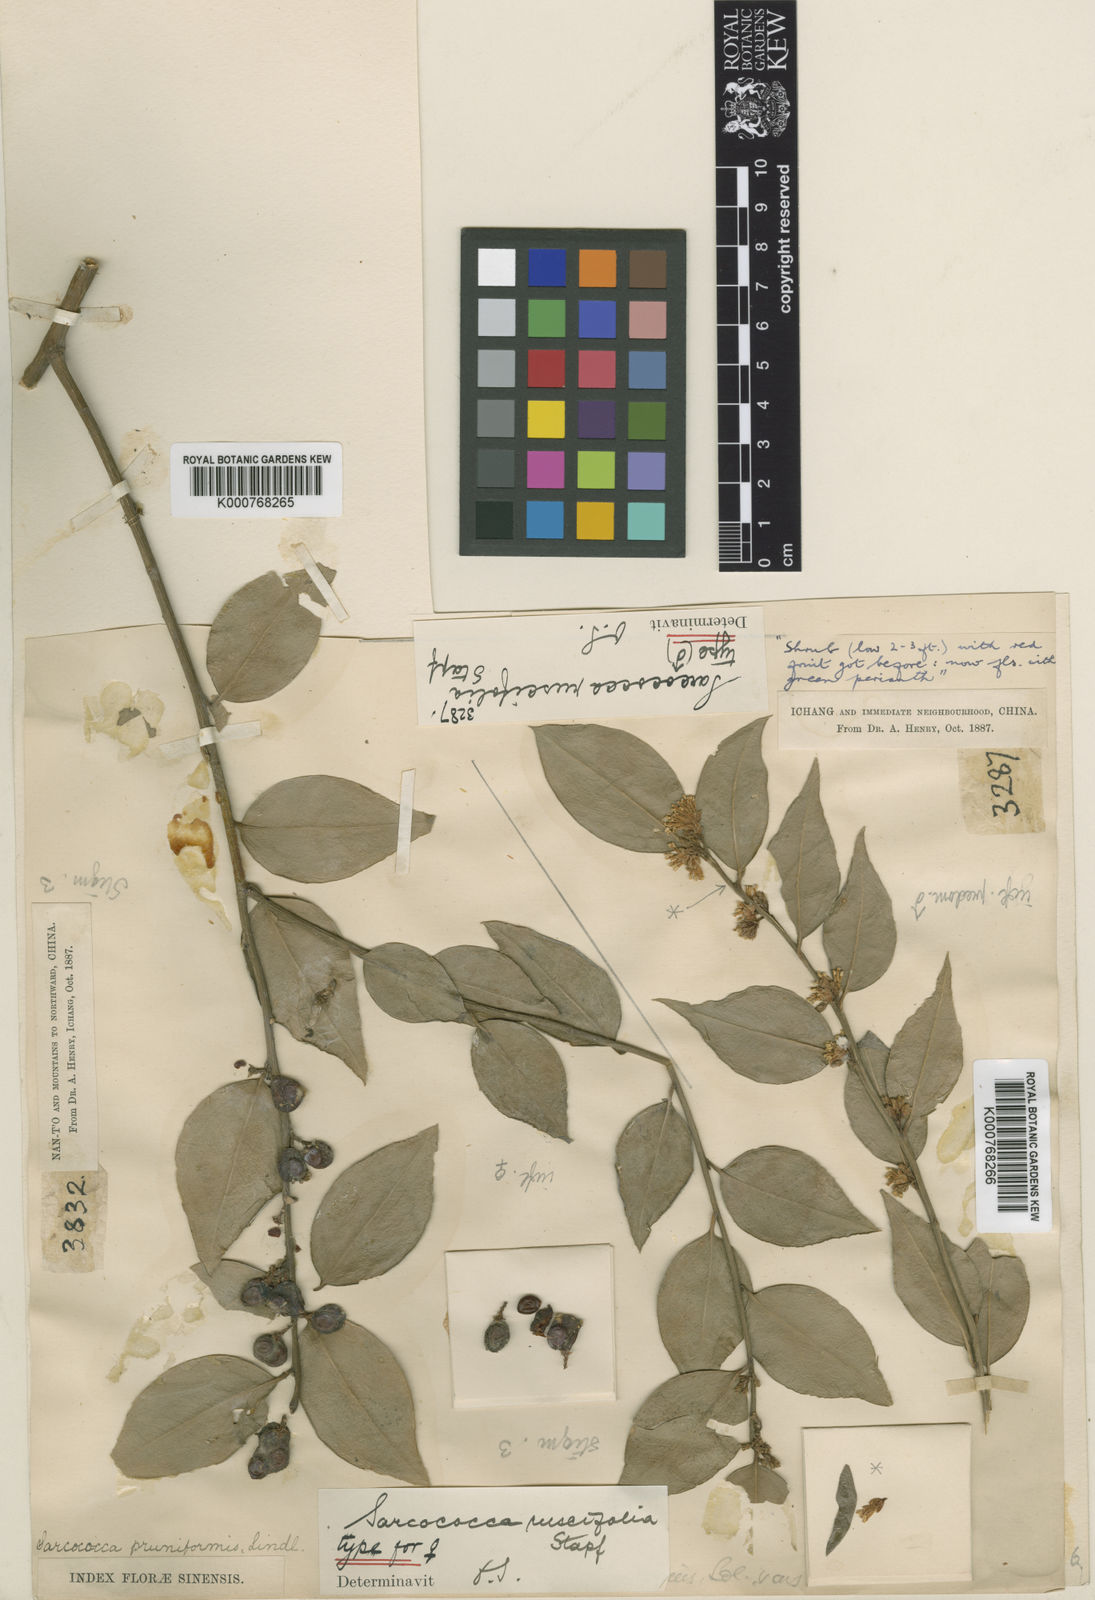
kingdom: Plantae
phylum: Tracheophyta
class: Magnoliopsida
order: Buxales
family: Buxaceae
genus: Sarcococca
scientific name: Sarcococca ruscifolia
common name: Fragrant sweet-box
